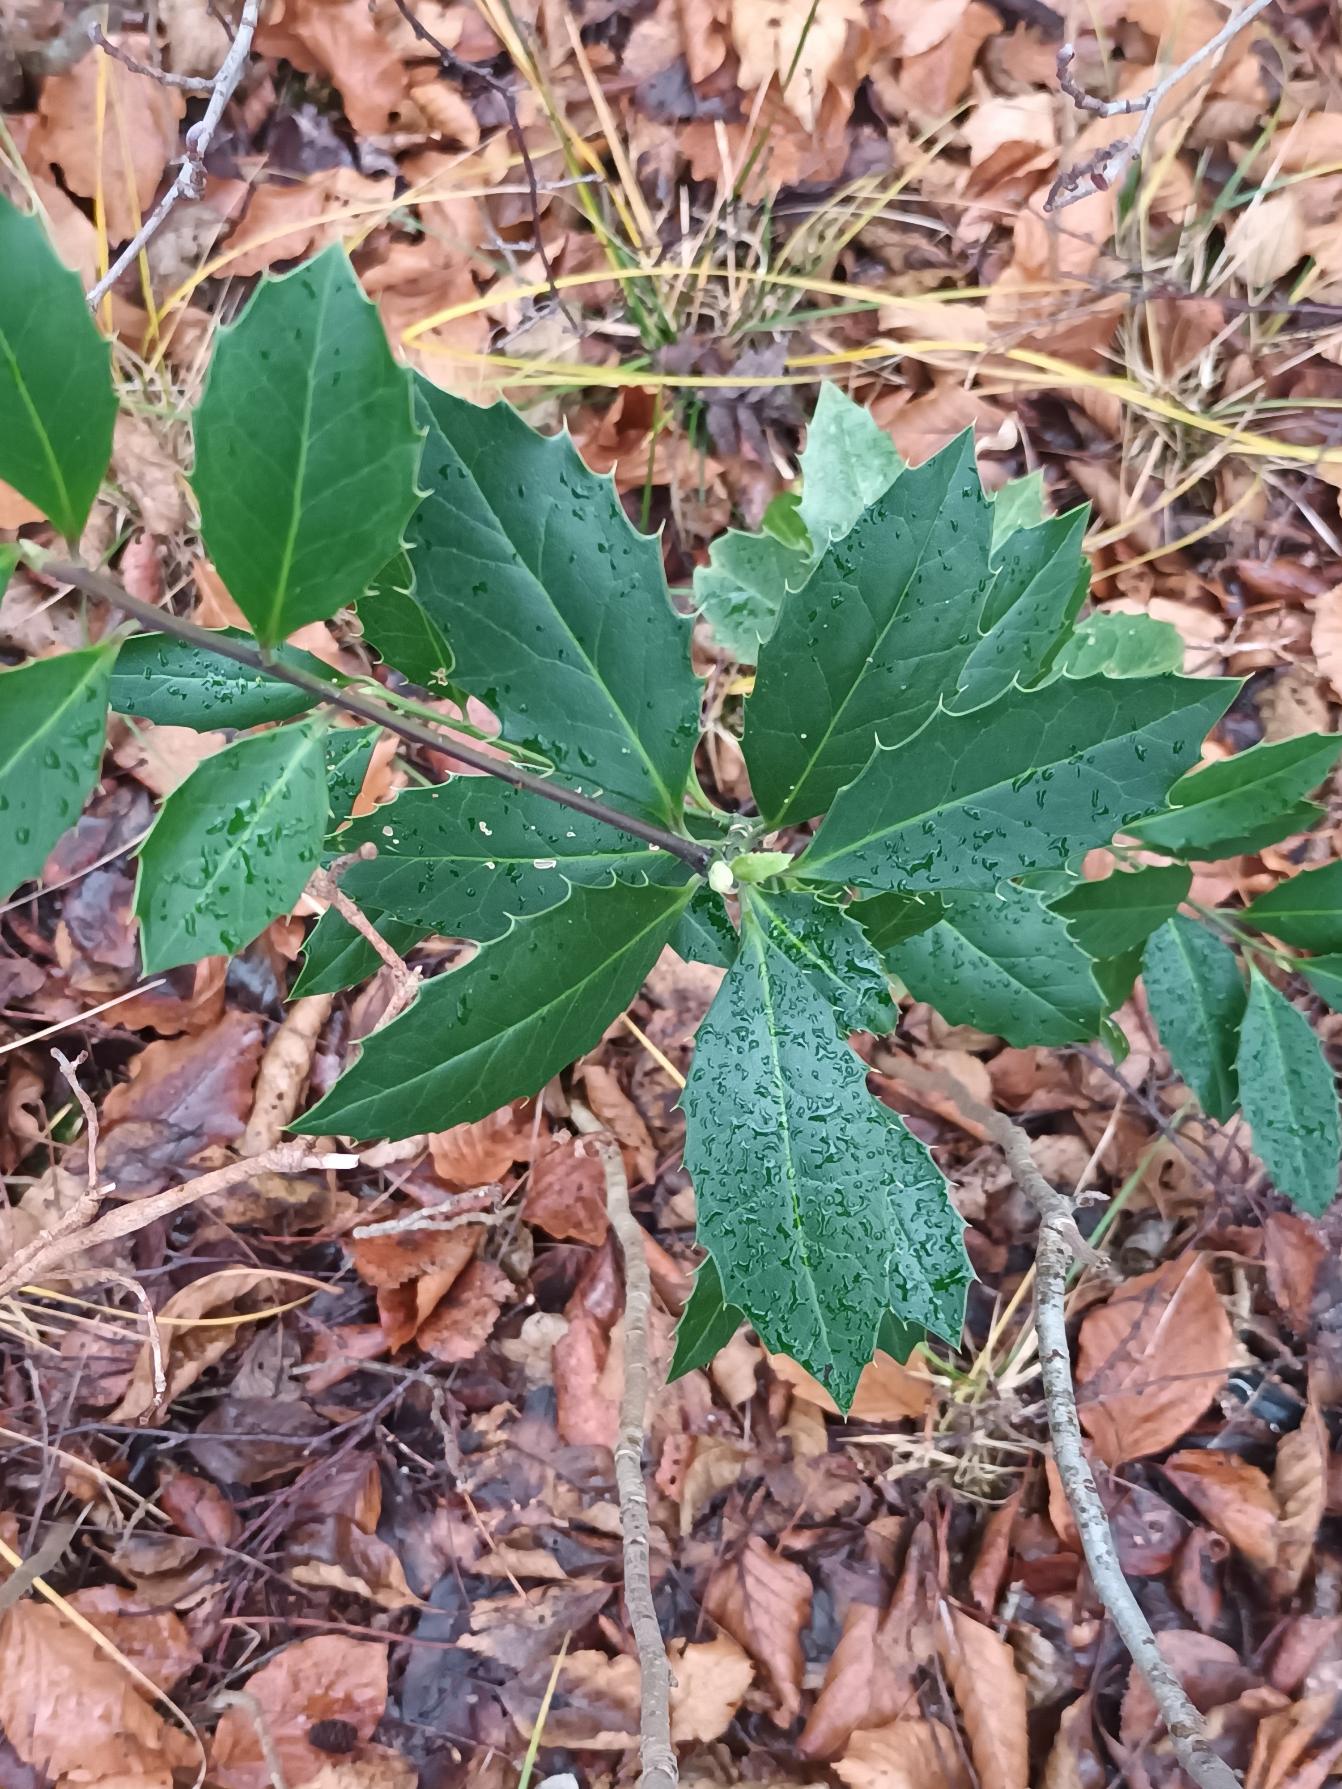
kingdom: Plantae
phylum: Tracheophyta
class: Magnoliopsida
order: Aquifoliales
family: Aquifoliaceae
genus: Ilex
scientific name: Ilex altaclerensis
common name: Storbladet kristtorn
